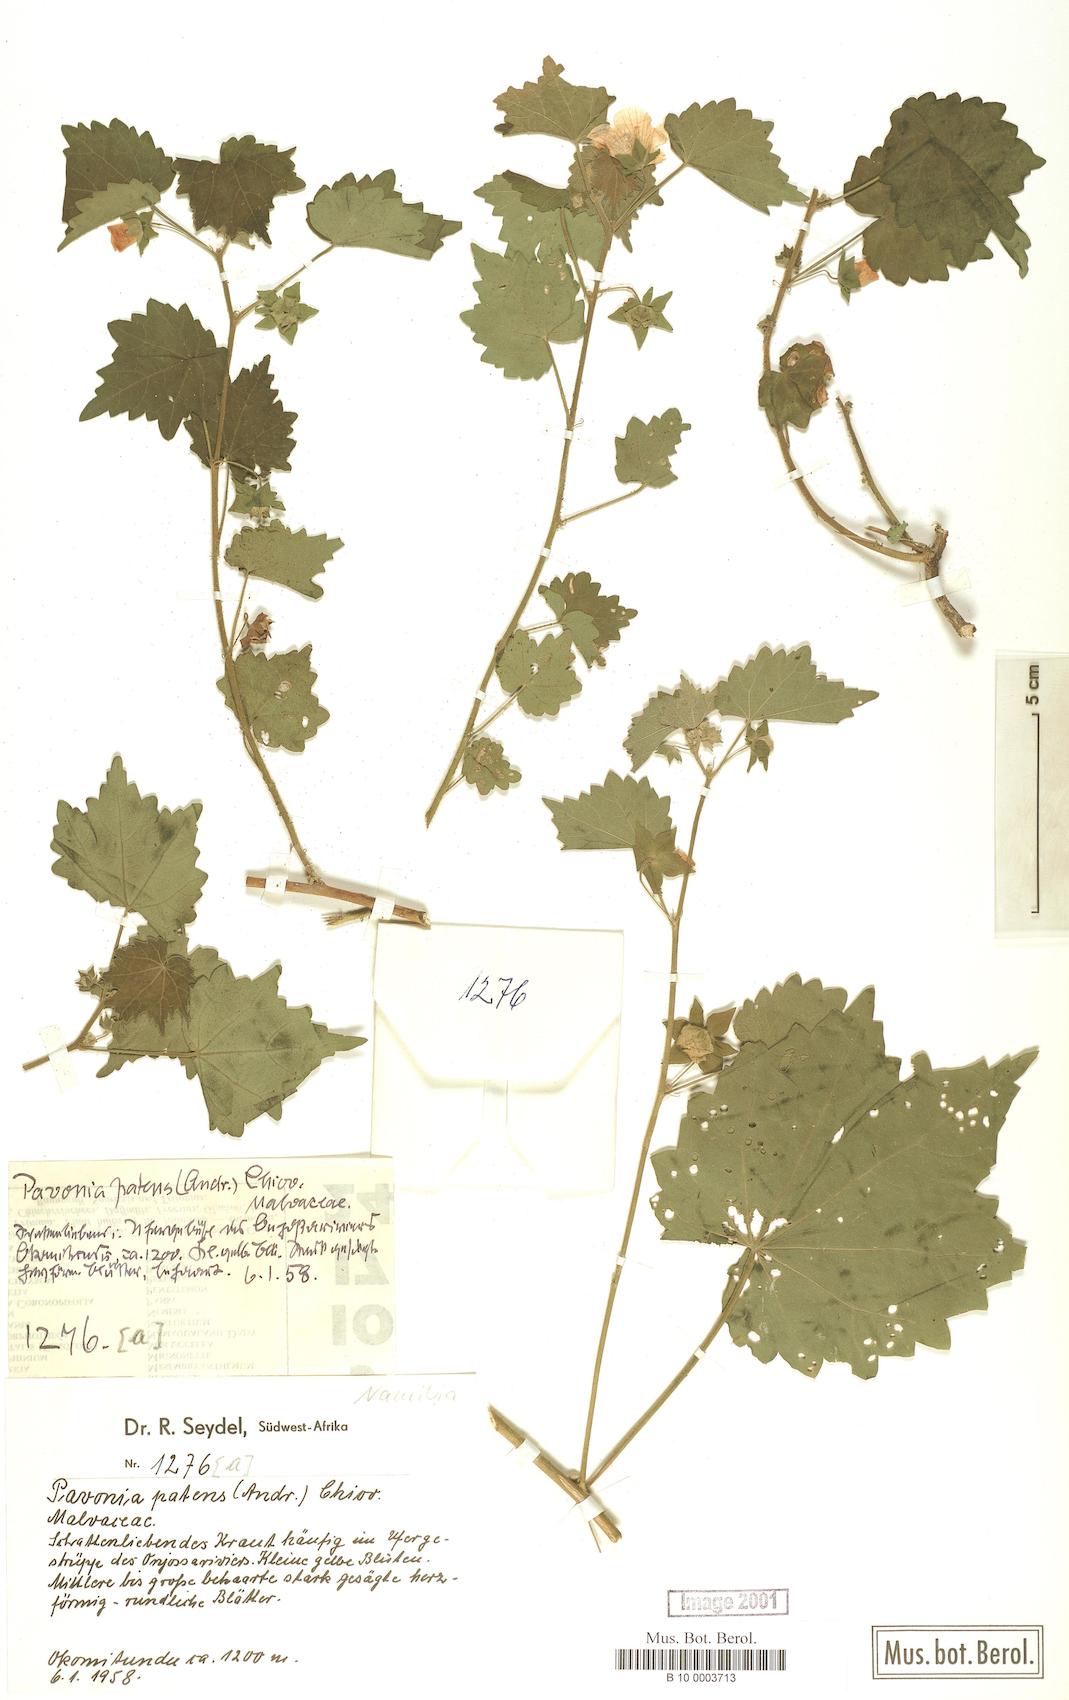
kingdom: Plantae
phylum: Tracheophyta
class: Magnoliopsida
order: Malvales
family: Malvaceae
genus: Abutilon
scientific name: Abutilon mauritianum
